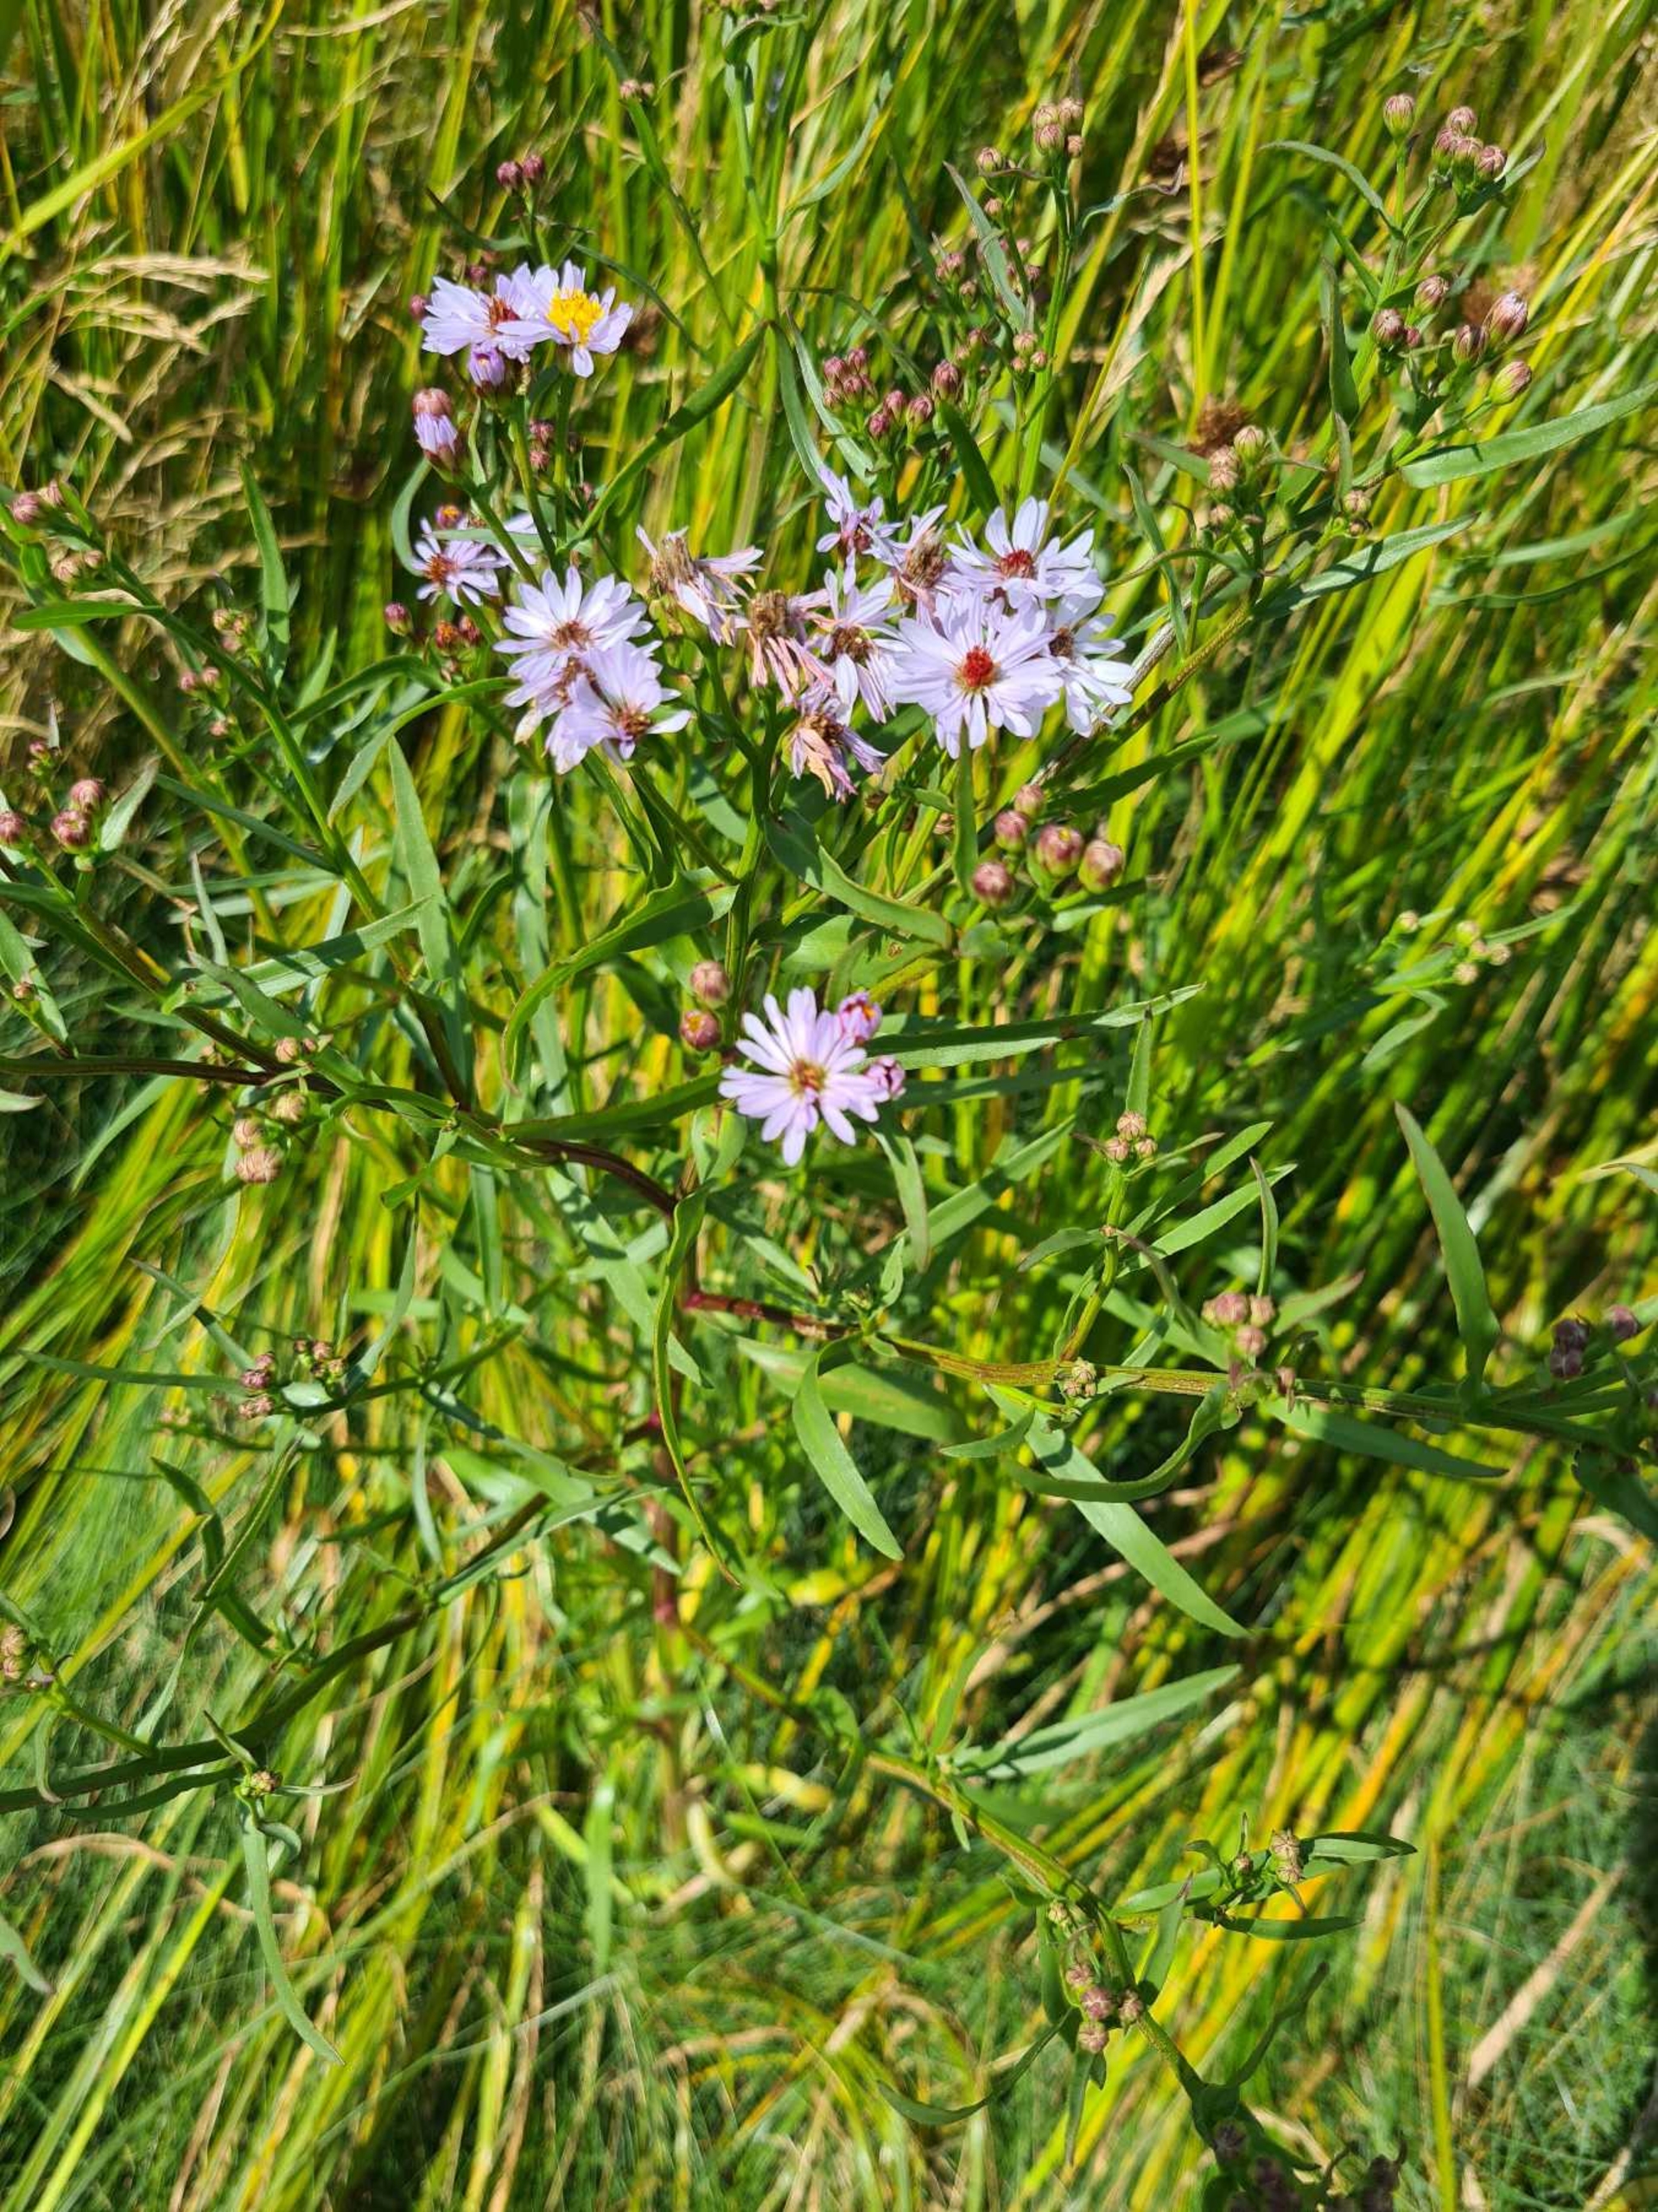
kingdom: Plantae
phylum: Tracheophyta
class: Magnoliopsida
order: Asterales
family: Asteraceae
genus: Tripolium
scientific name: Tripolium pannonicum
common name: Strandasters (underart)
